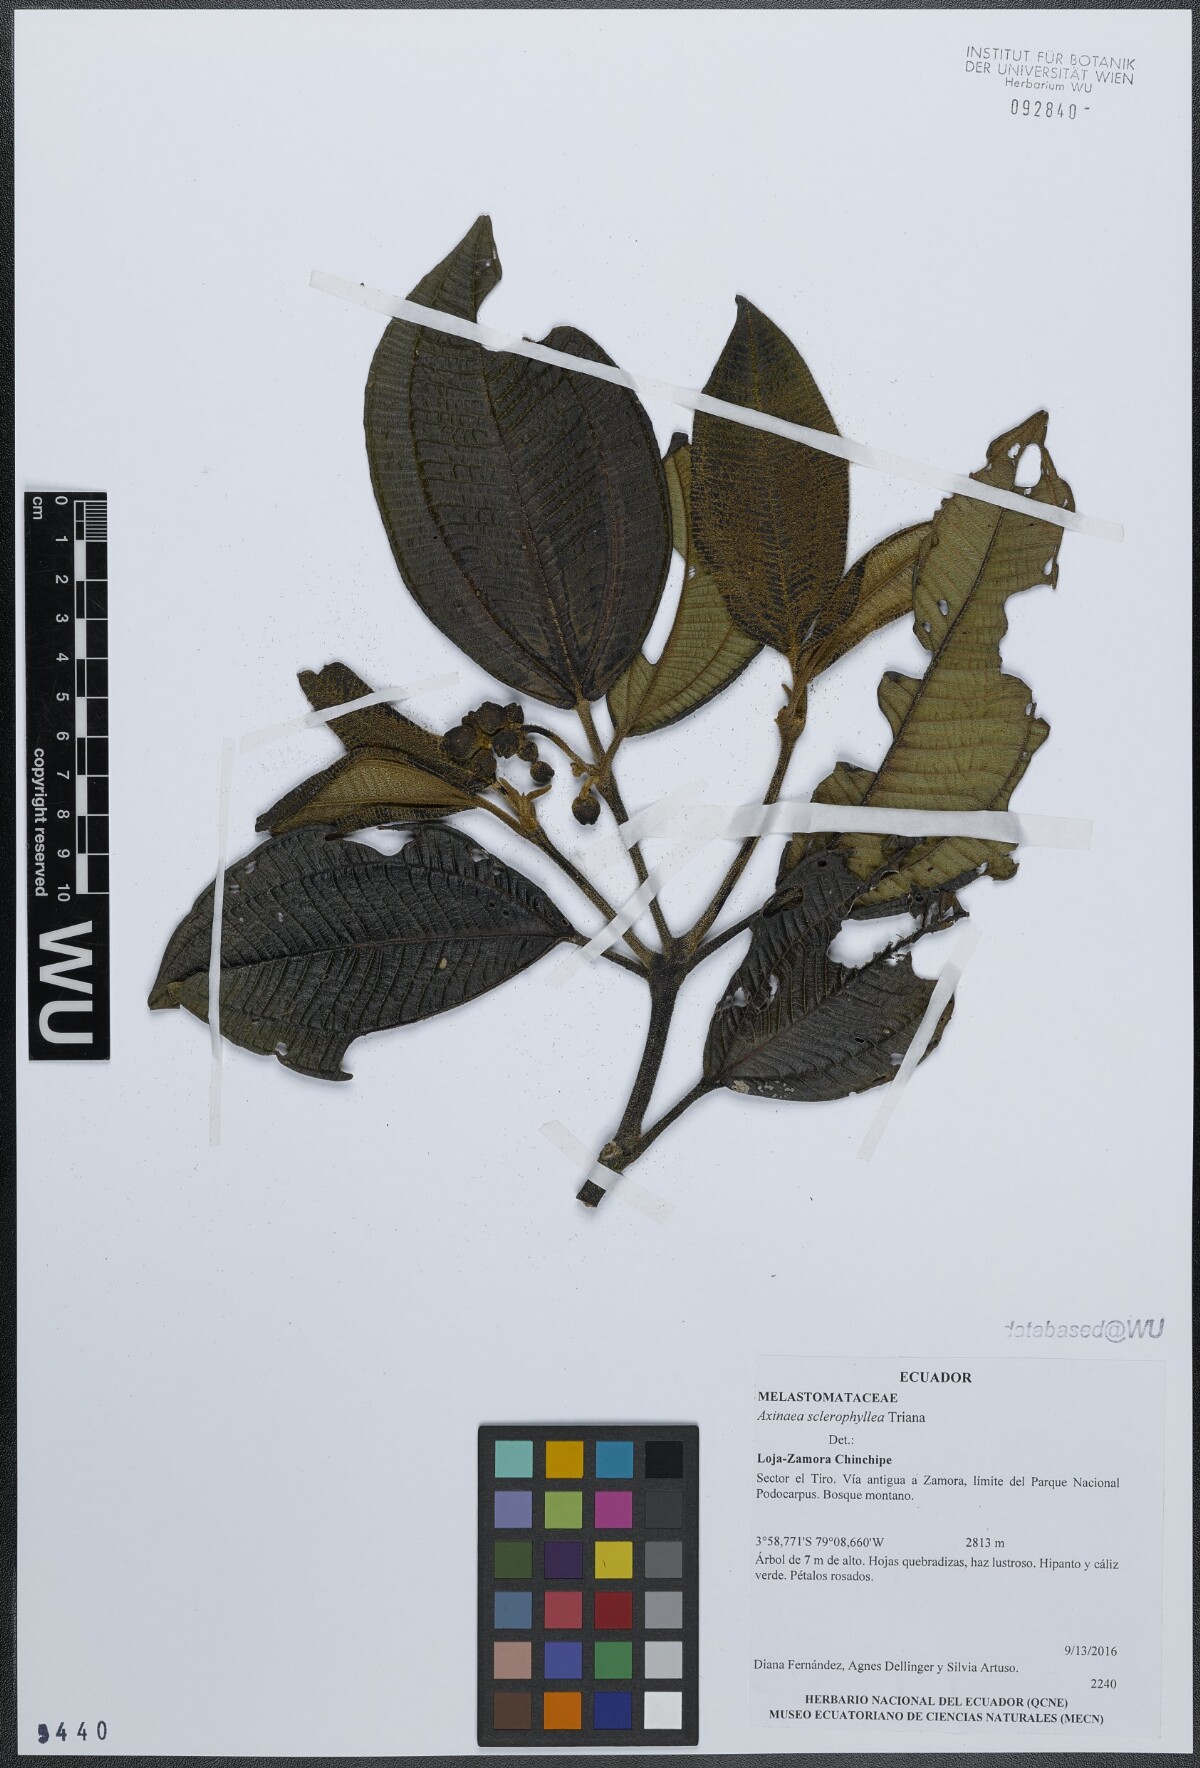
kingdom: Plantae
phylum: Tracheophyta
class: Magnoliopsida
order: Myrtales
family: Melastomataceae
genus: Axinaea
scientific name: Axinaea sclerophylla
